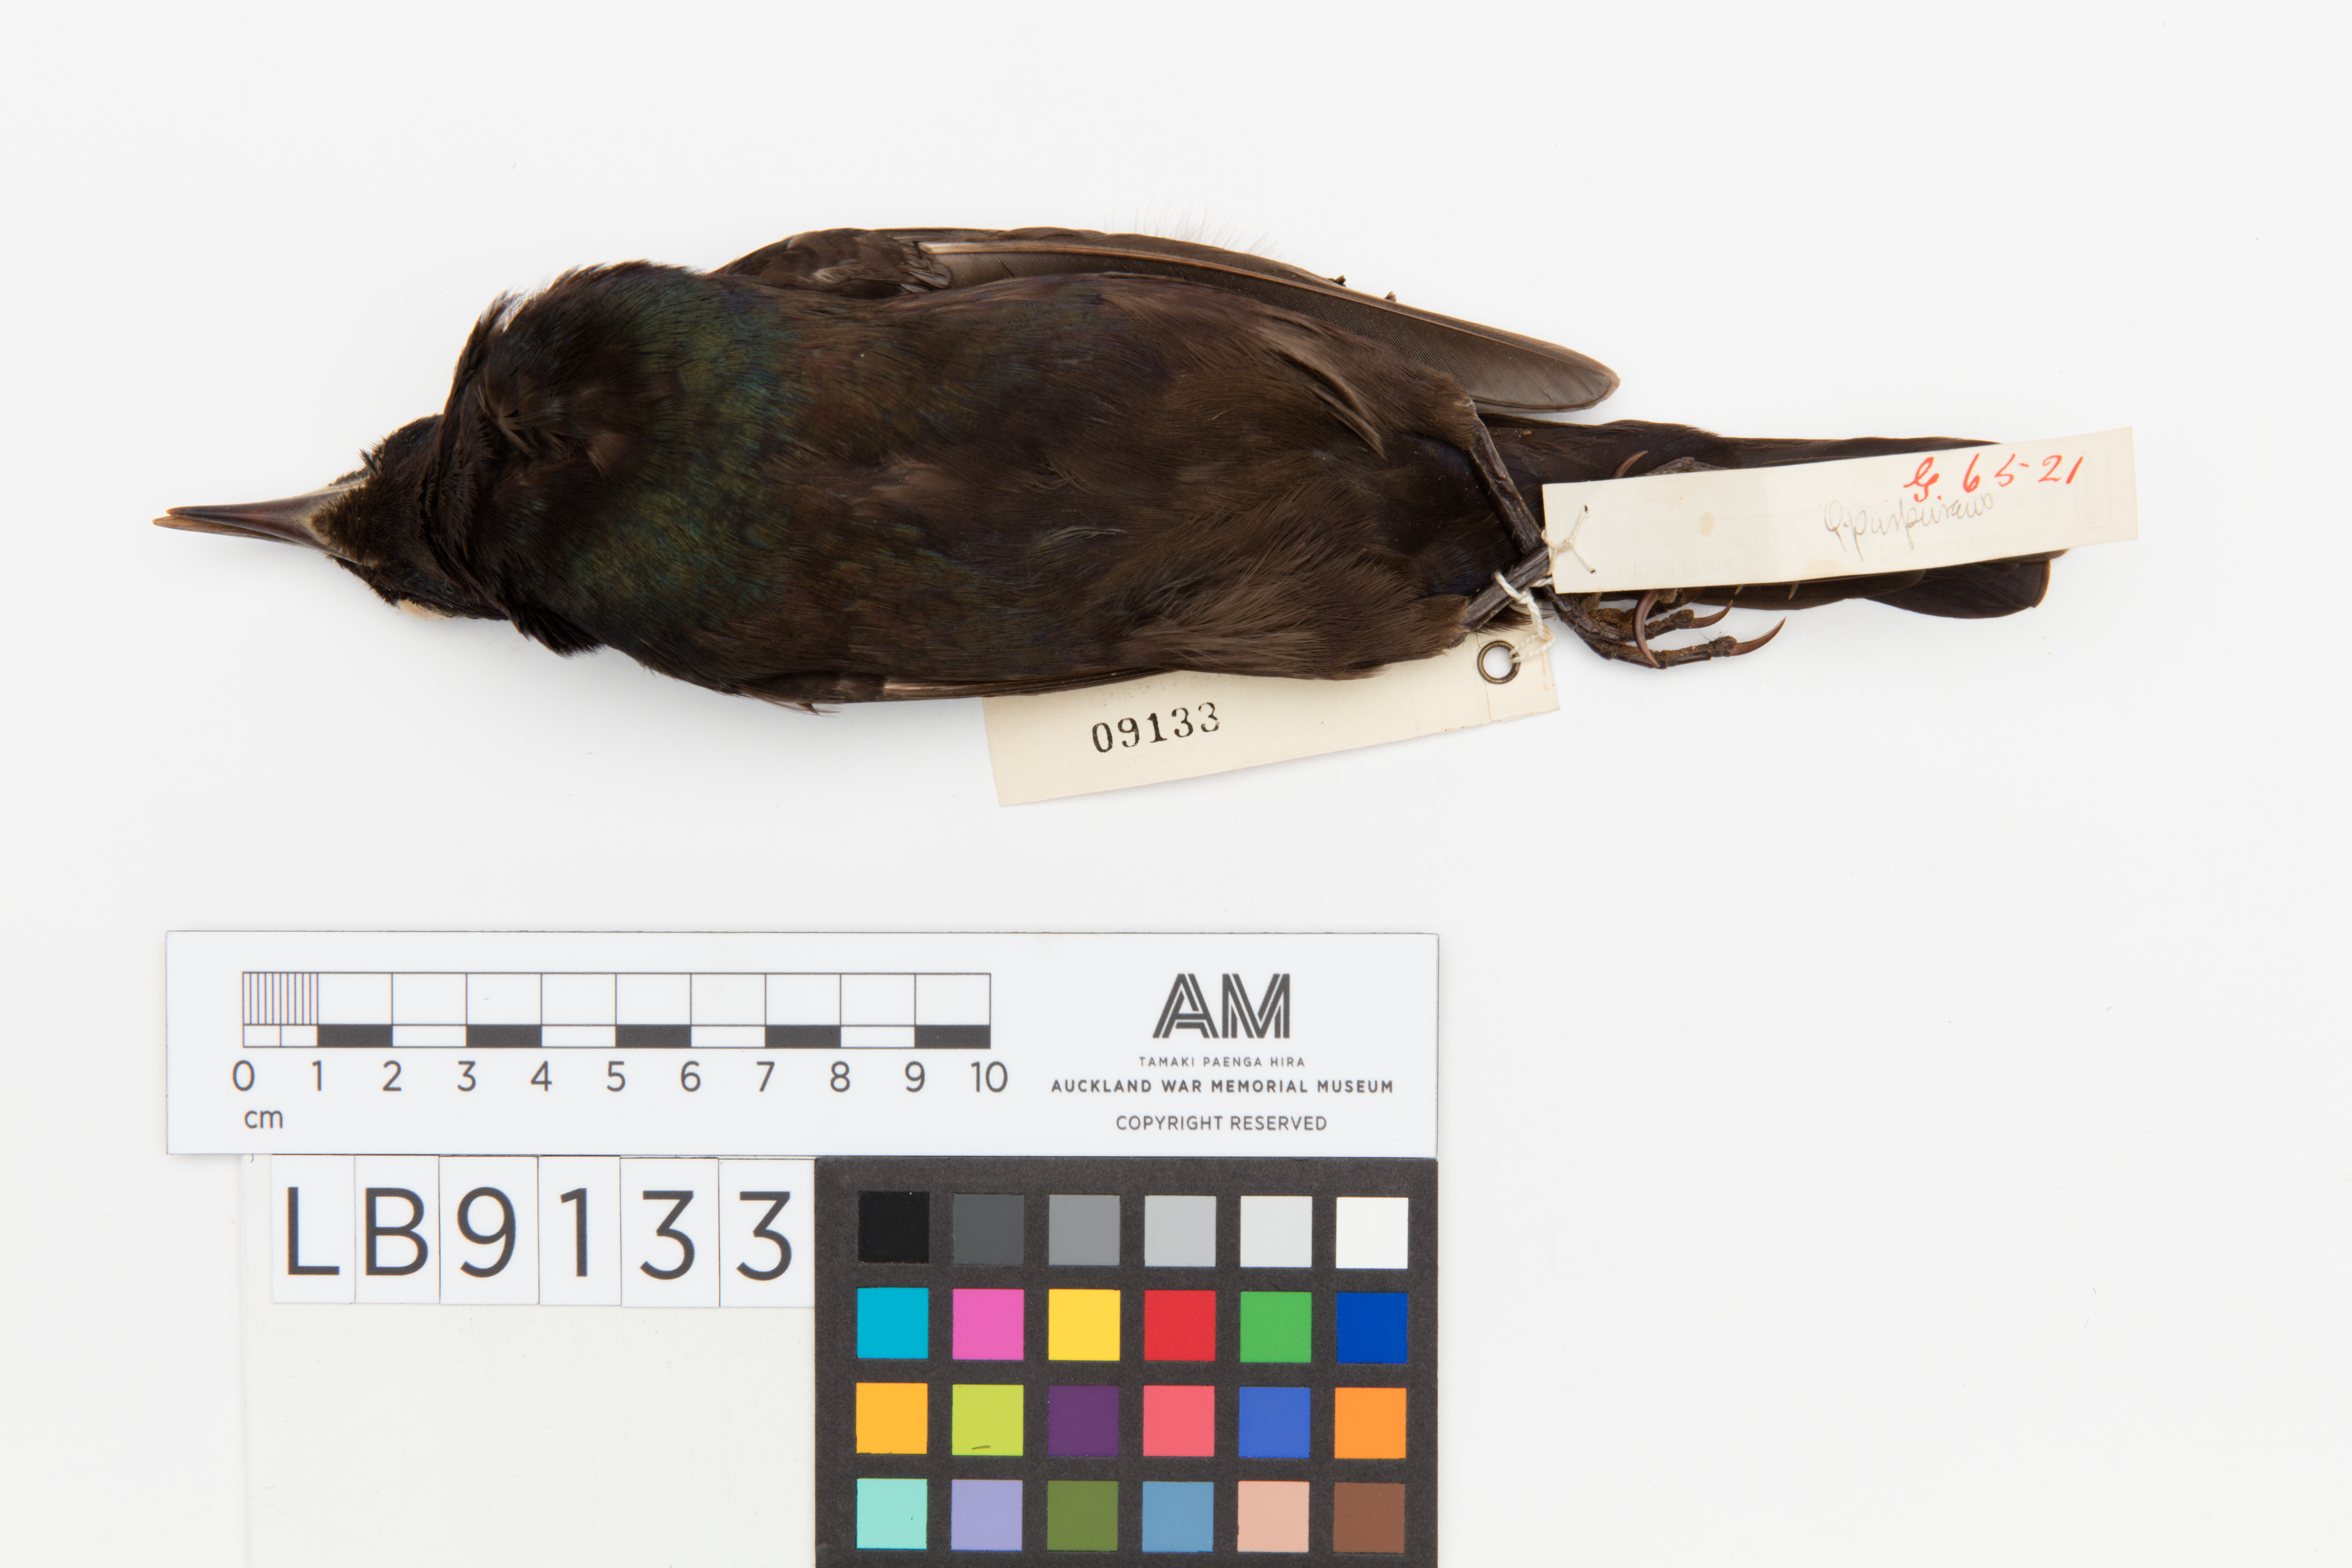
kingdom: Animalia
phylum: Chordata
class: Aves
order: Passeriformes
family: Icteridae
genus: Quiscalus
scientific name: Quiscalus quiscula
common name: Common grackle
